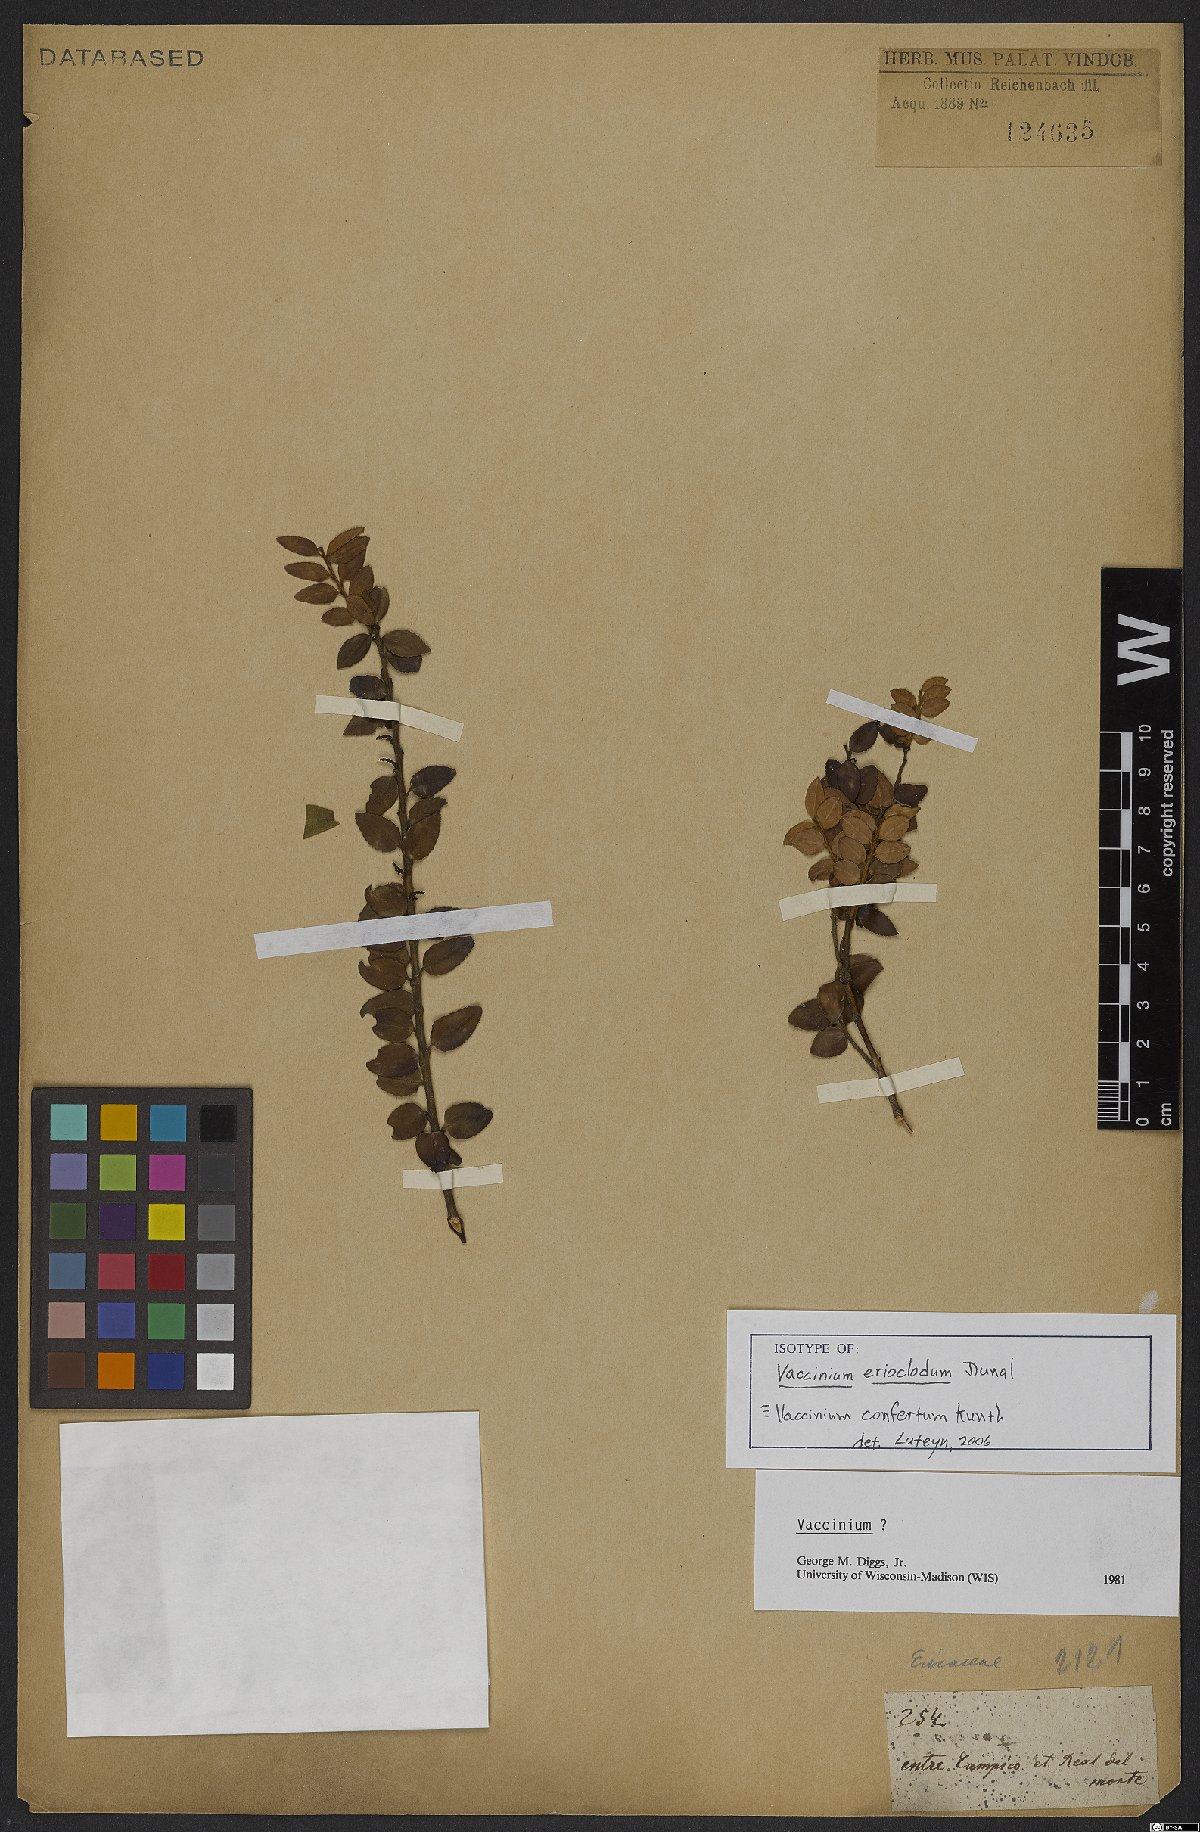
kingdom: Plantae
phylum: Tracheophyta
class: Magnoliopsida
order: Ericales
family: Ericaceae
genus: Vaccinium
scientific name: Vaccinium confertum
